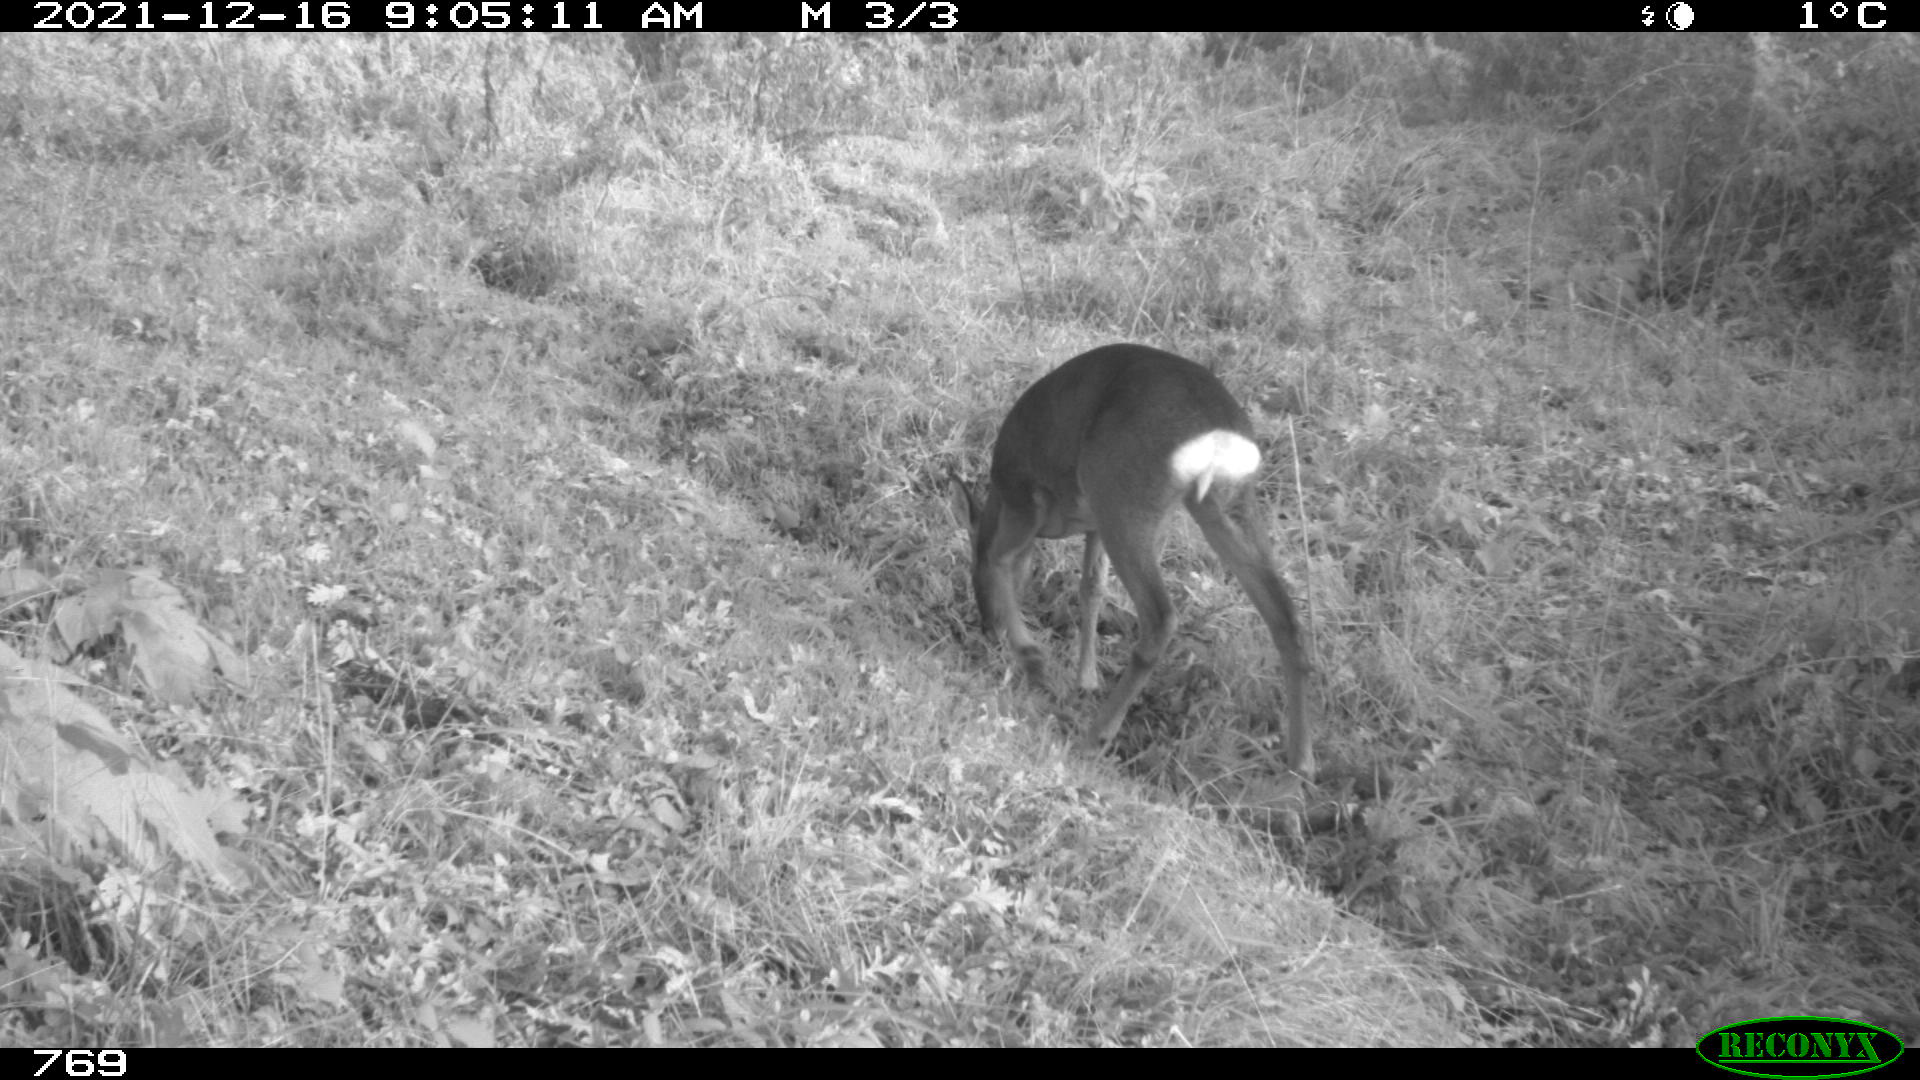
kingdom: Animalia
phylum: Chordata
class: Mammalia
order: Artiodactyla
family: Cervidae
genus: Capreolus
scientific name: Capreolus capreolus
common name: Western roe deer
